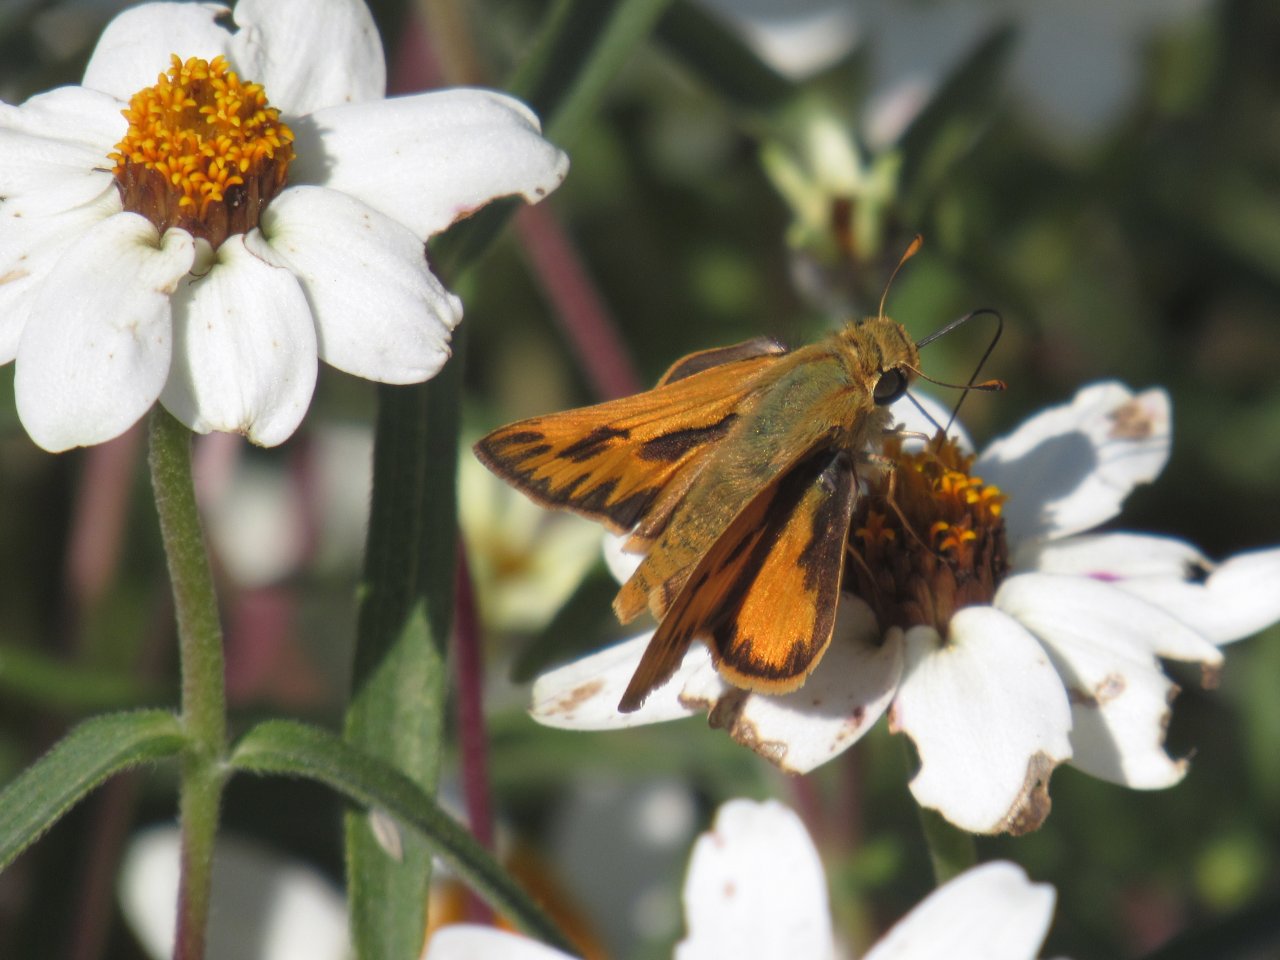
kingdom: Animalia
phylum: Arthropoda
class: Insecta
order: Lepidoptera
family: Hesperiidae
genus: Hylephila
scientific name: Hylephila phyleus
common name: Fiery Skipper
